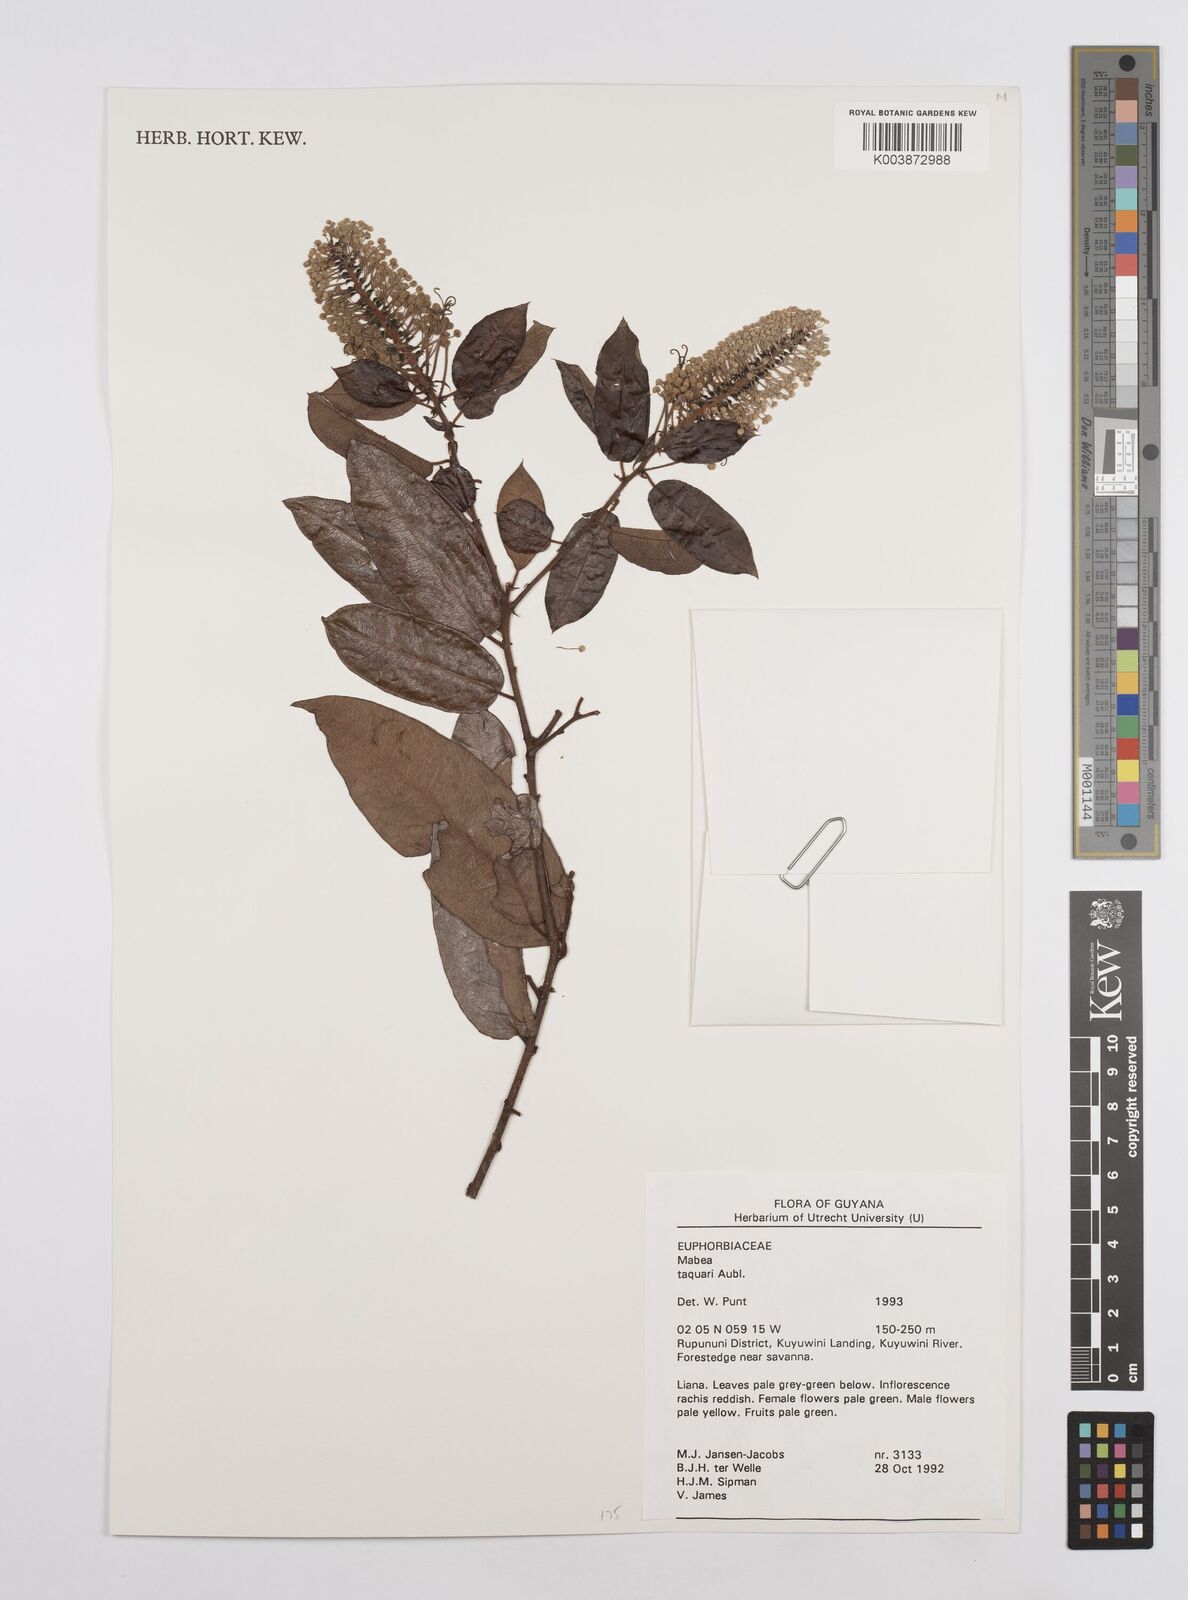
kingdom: Plantae
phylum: Tracheophyta
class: Magnoliopsida
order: Malpighiales
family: Euphorbiaceae
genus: Mabea
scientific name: Mabea taquari
